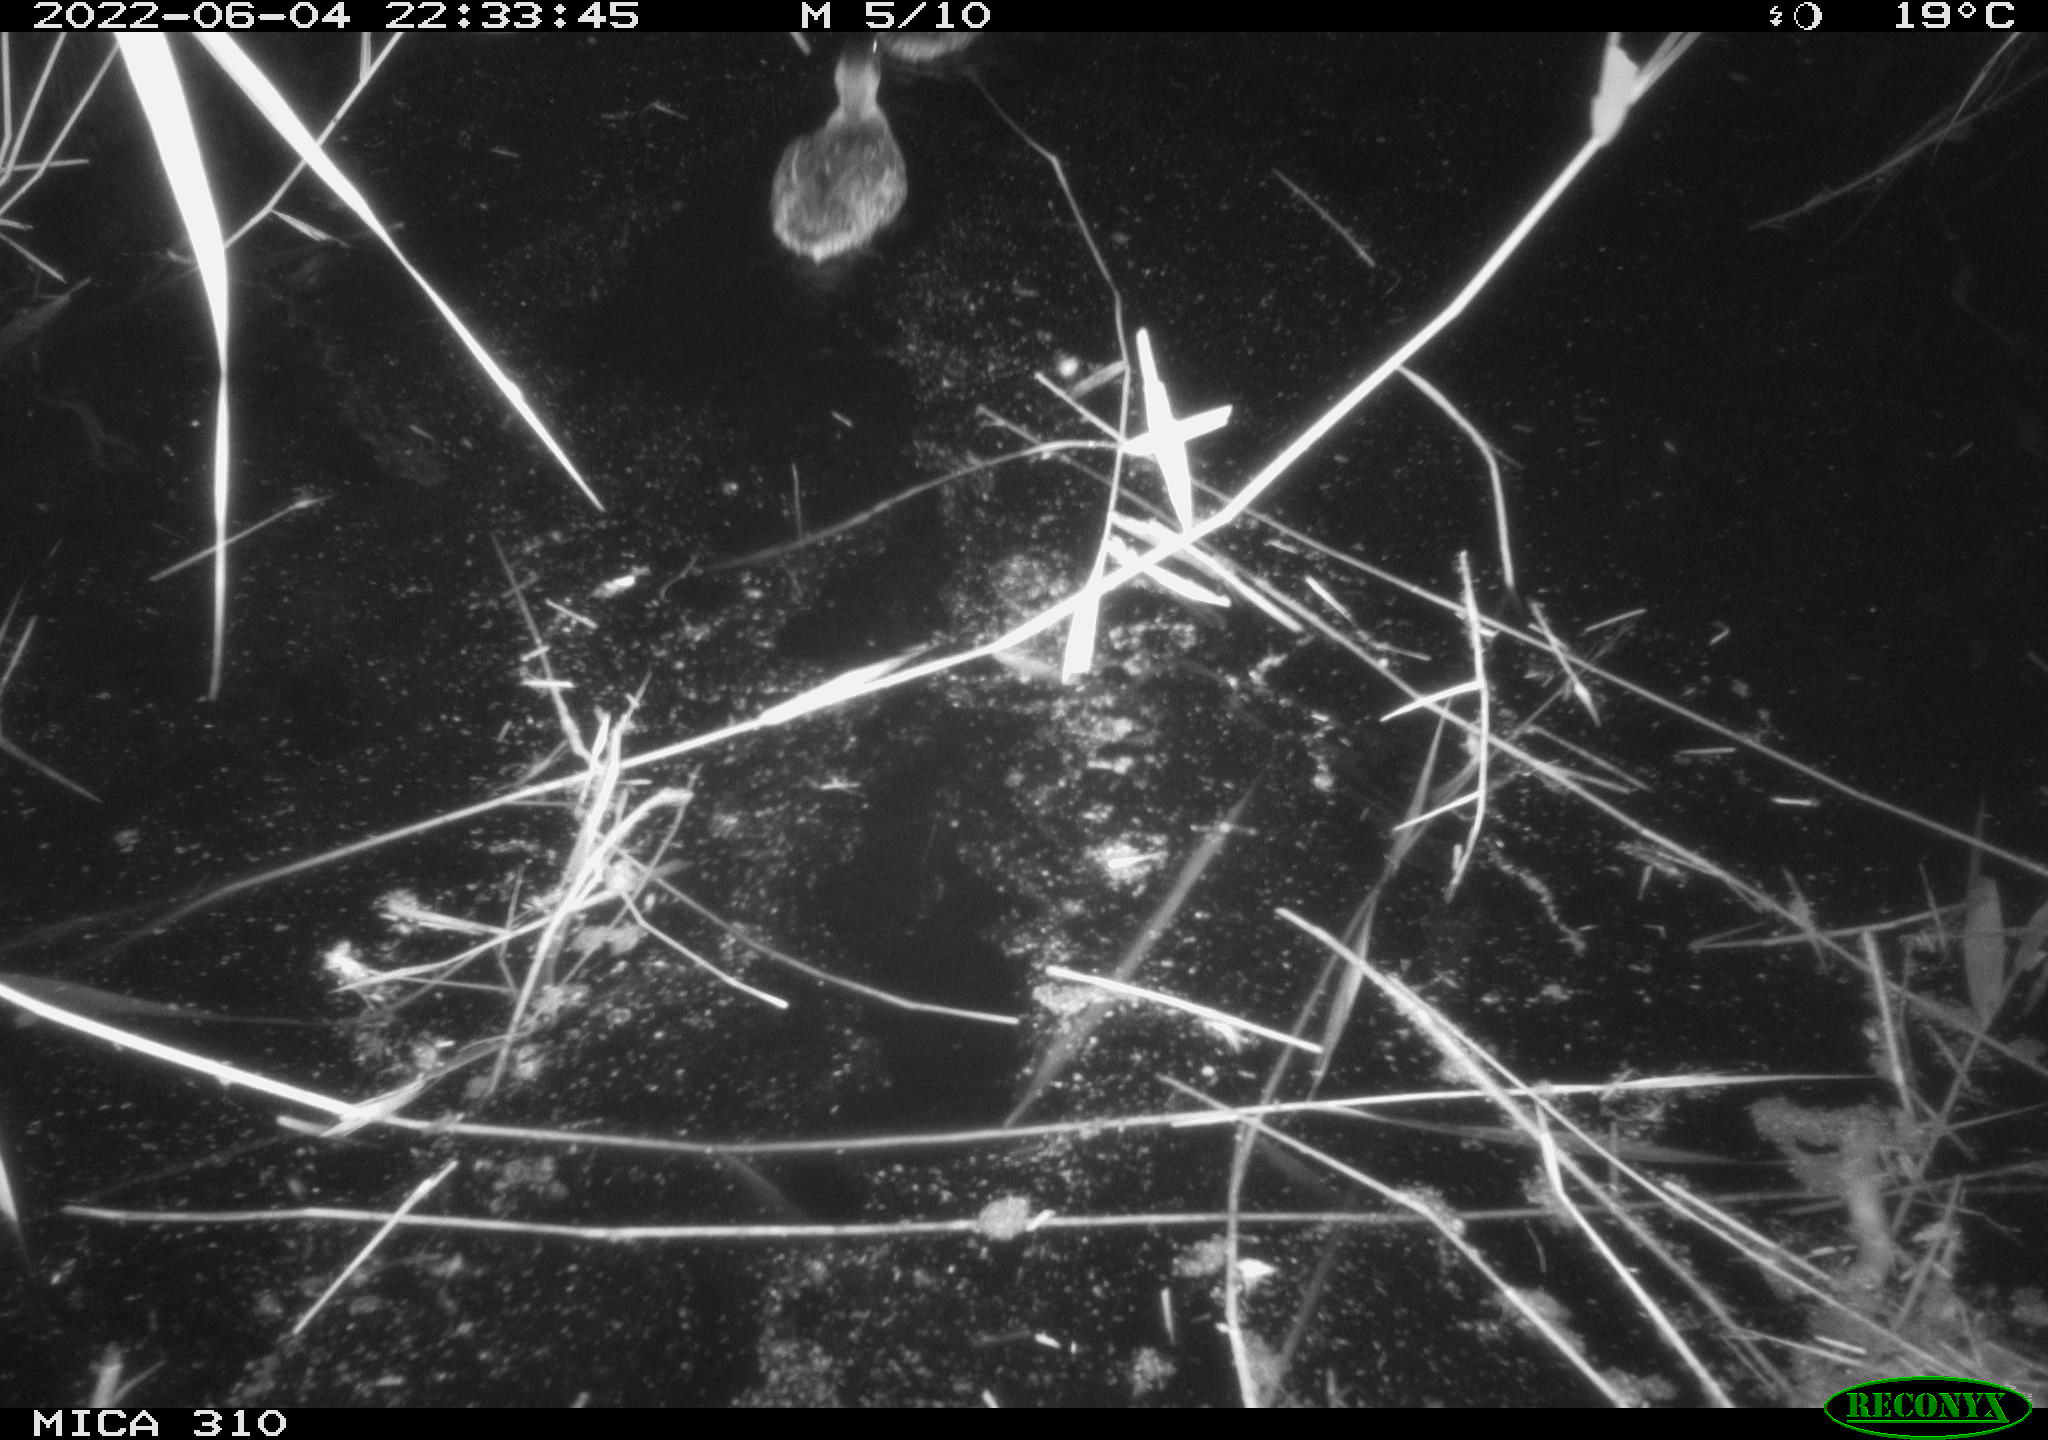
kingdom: Animalia
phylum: Chordata
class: Aves
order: Anseriformes
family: Anatidae
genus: Anas
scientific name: Anas platyrhynchos
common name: Mallard
